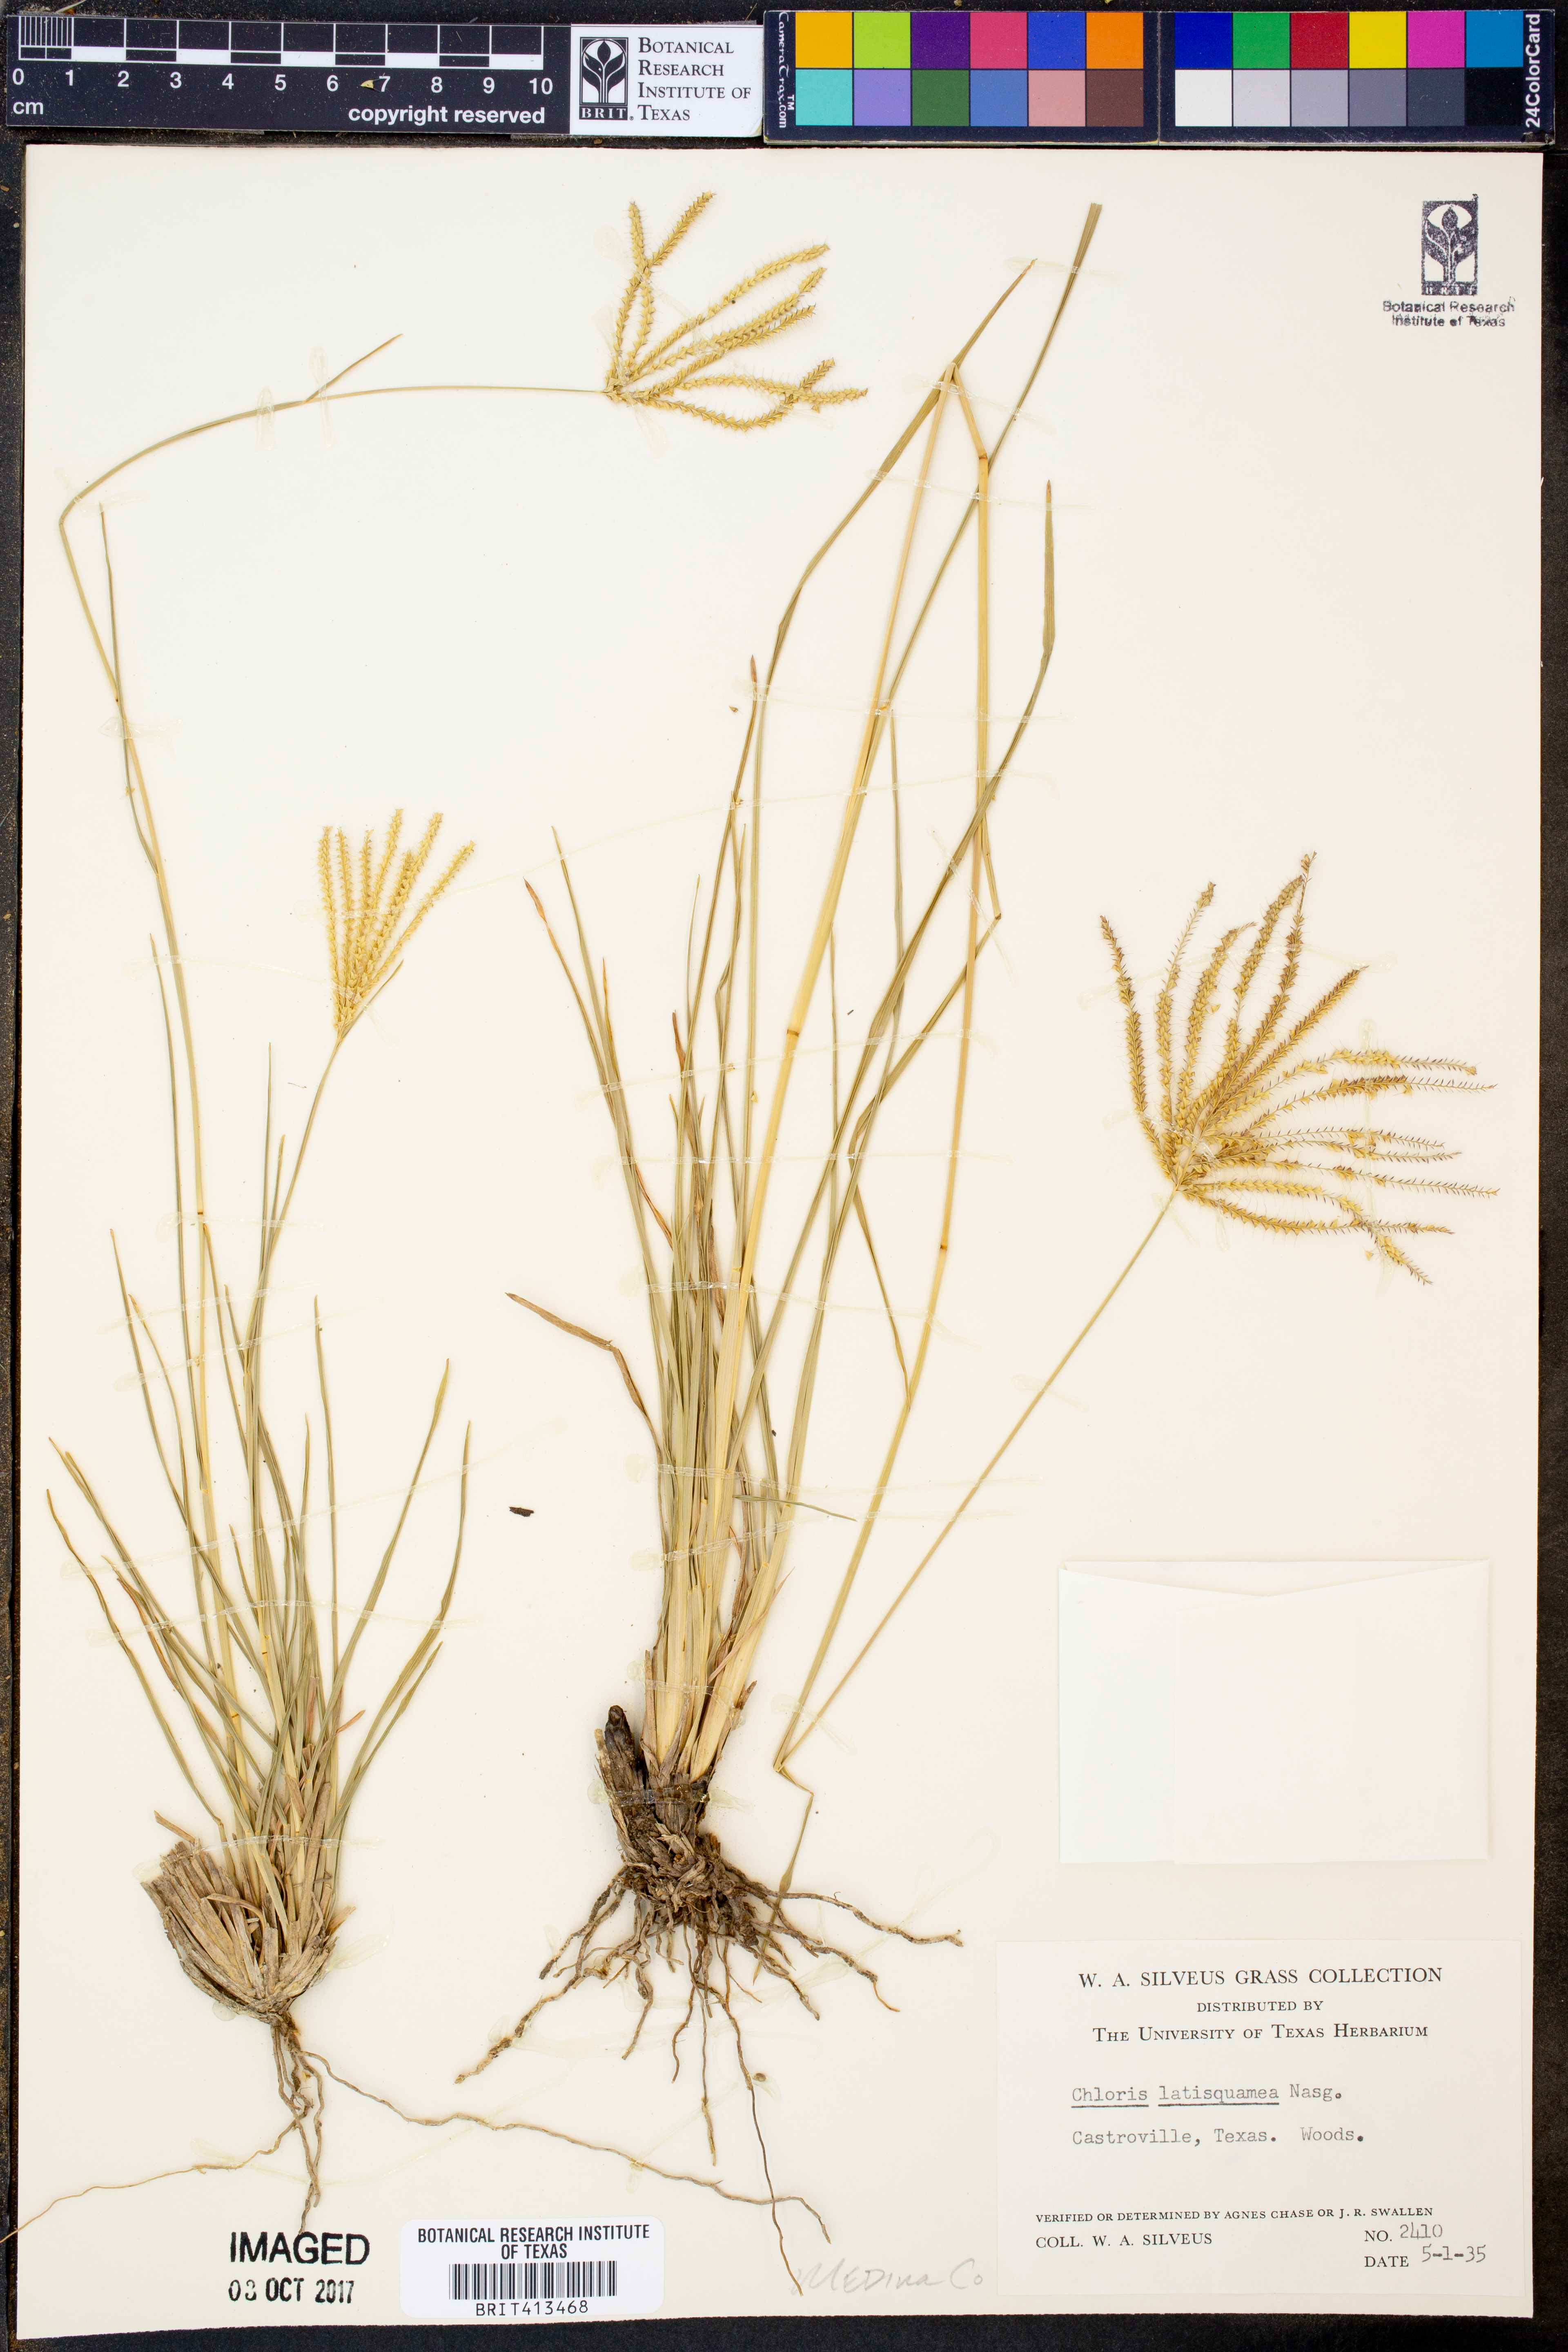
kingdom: Plantae
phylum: Tracheophyta
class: Liliopsida
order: Poales
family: Poaceae
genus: Chloris
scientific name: Chloris subdolichostachya
